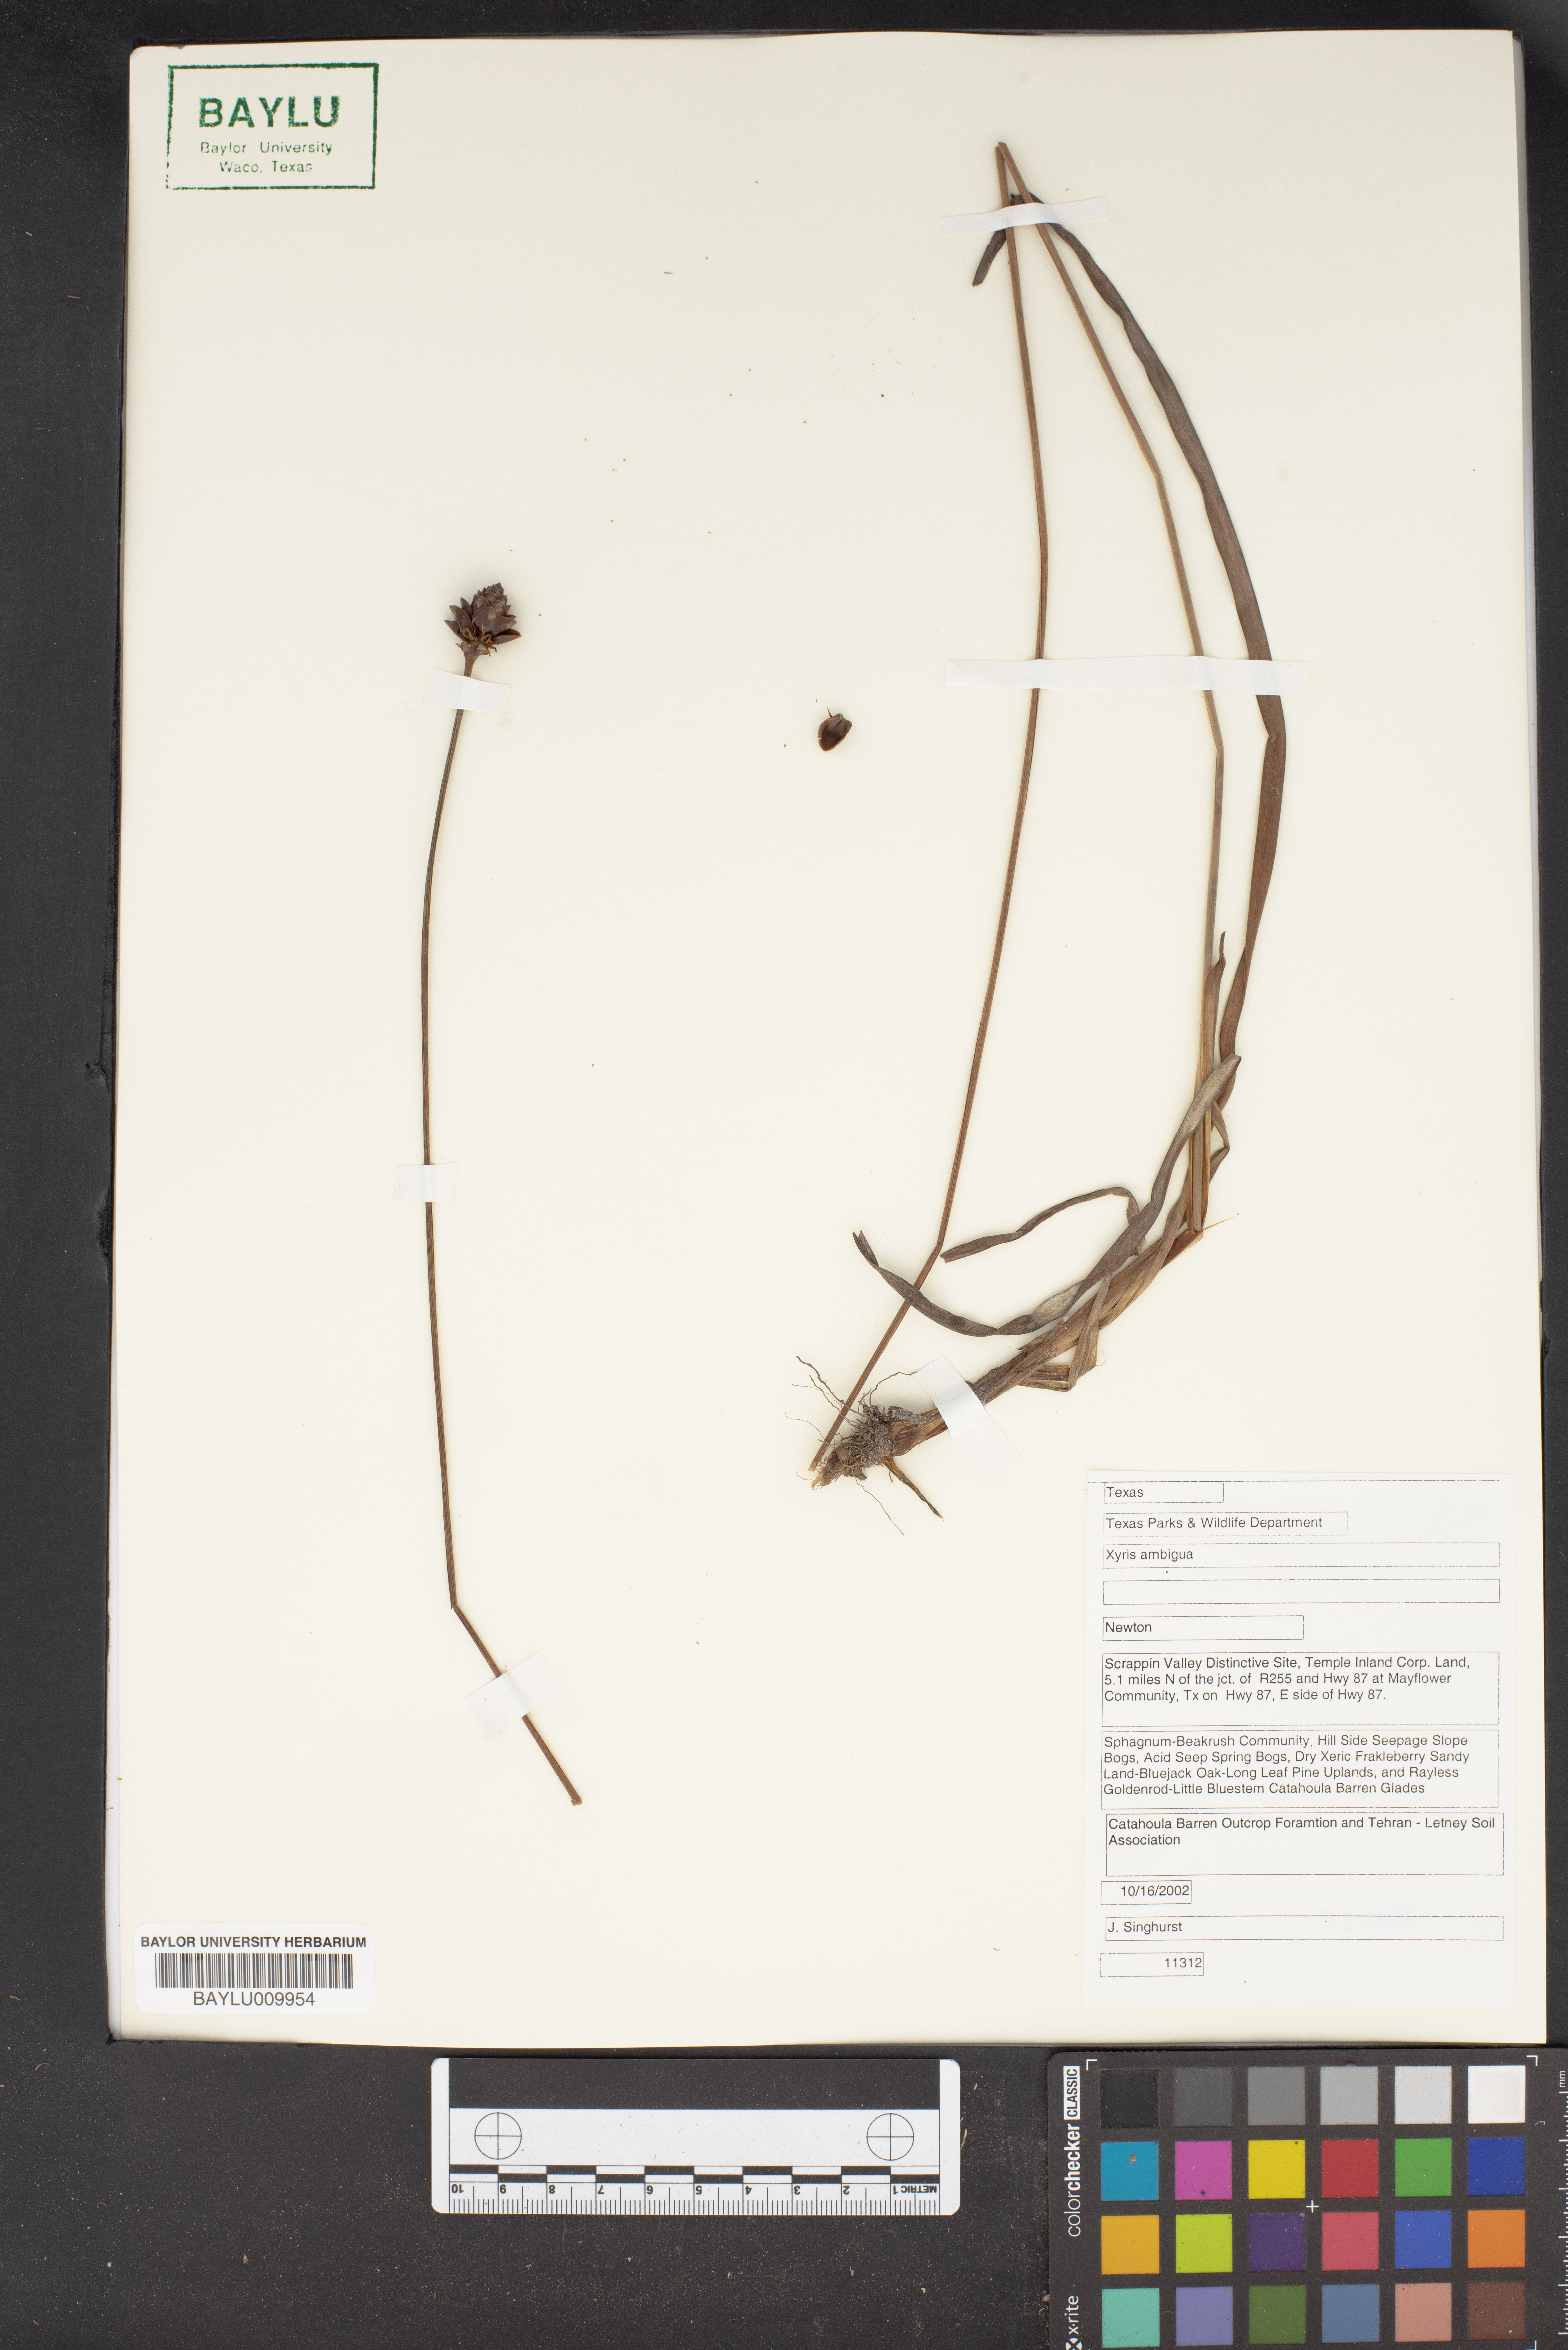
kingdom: Plantae
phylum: Tracheophyta
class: Liliopsida
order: Poales
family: Xyridaceae
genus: Xyris
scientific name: Xyris ambigua
